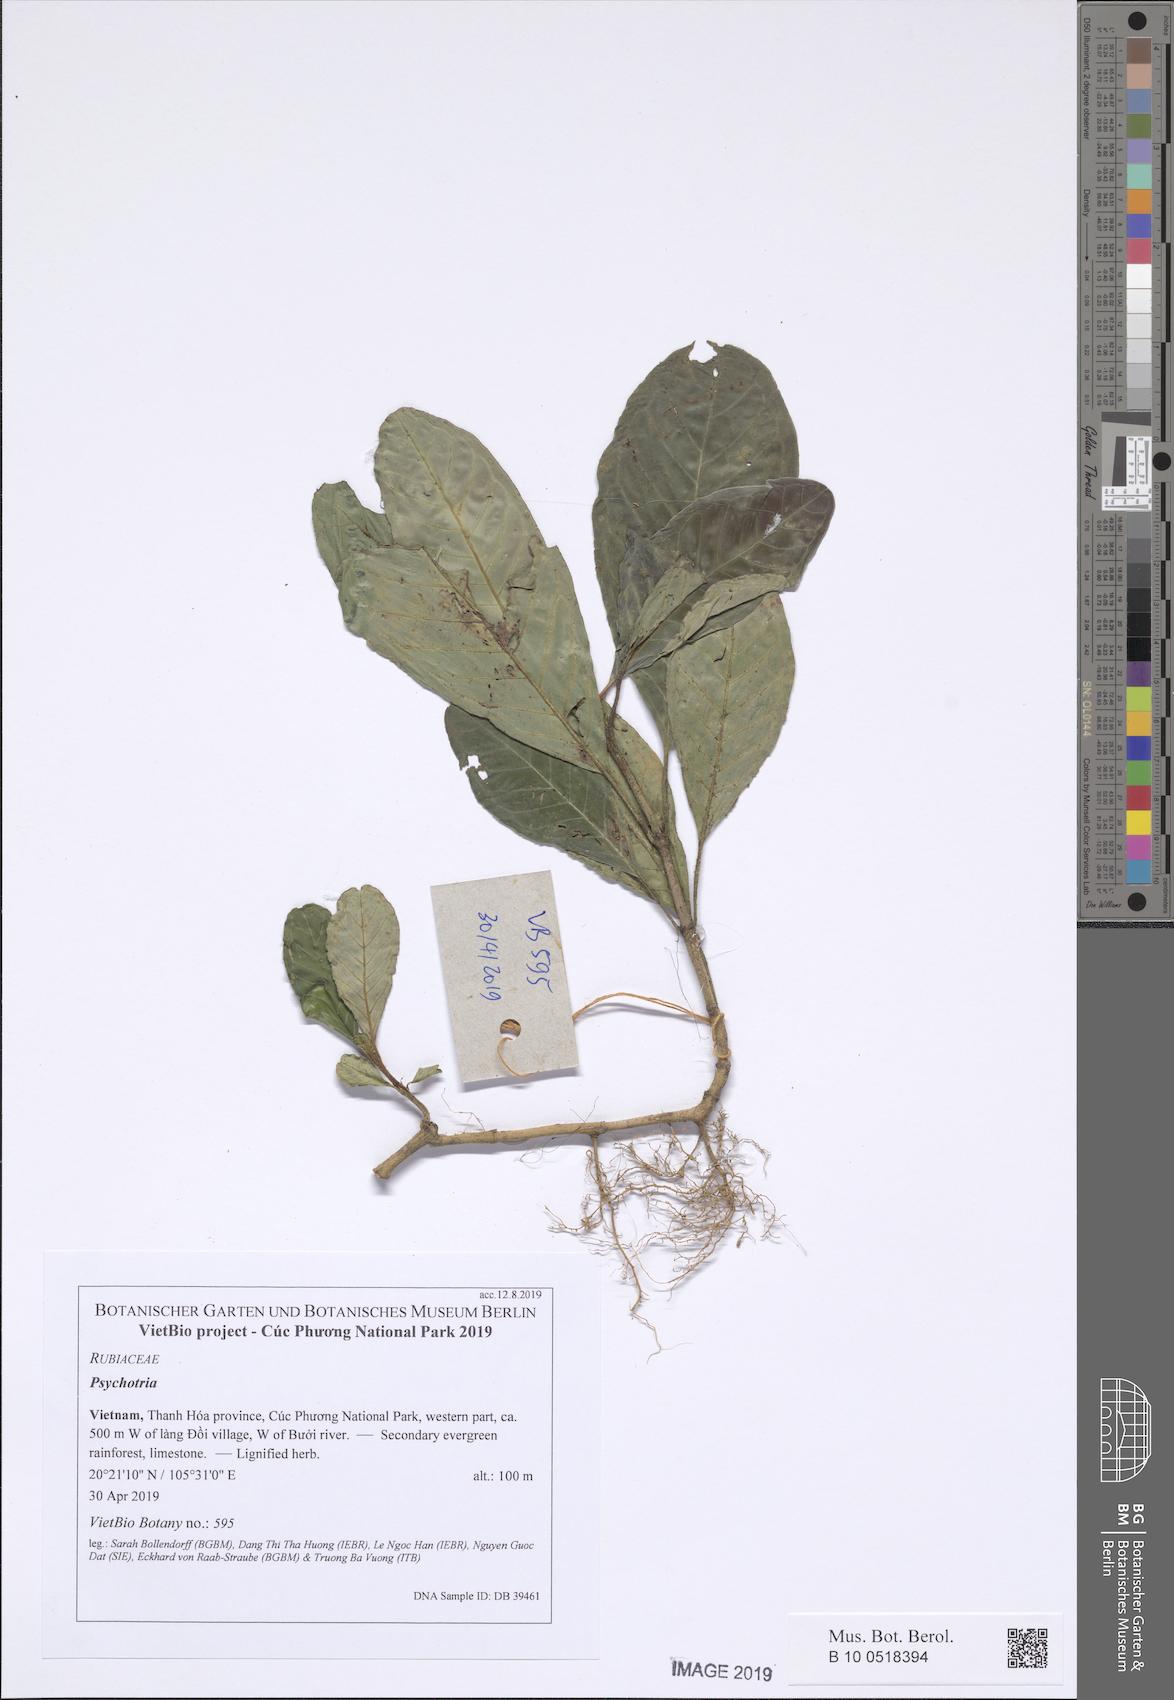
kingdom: Plantae
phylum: Tracheophyta
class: Magnoliopsida
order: Gentianales
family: Rubiaceae
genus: Psychotria
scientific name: Psychotria
